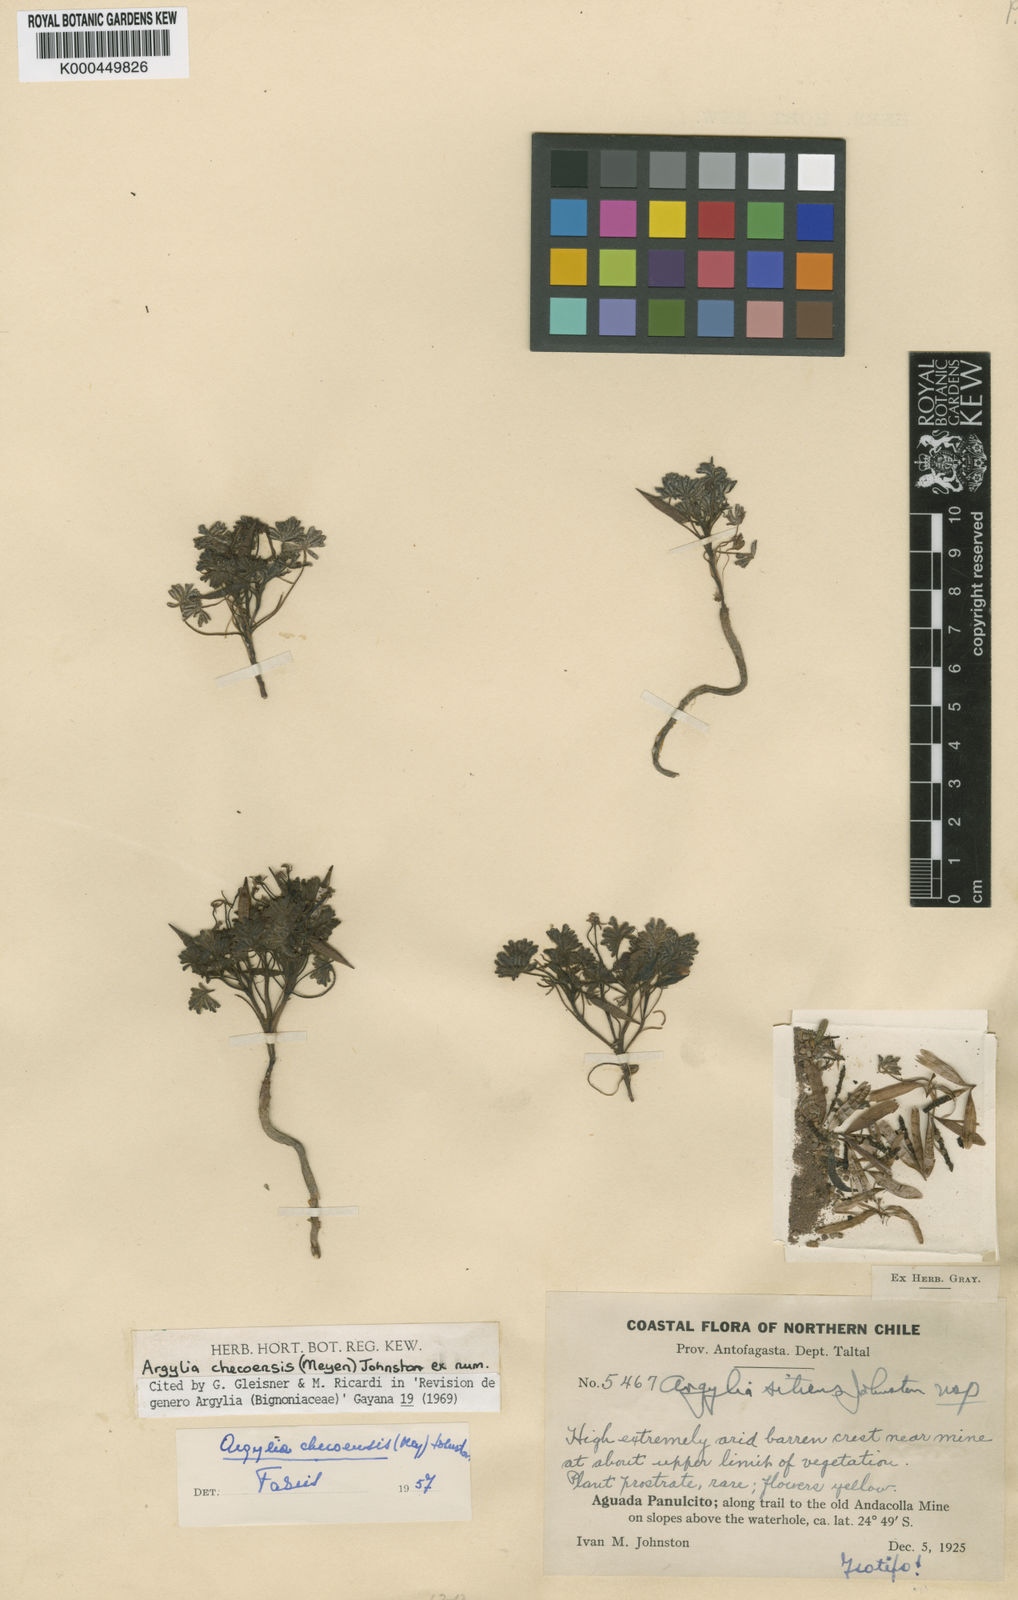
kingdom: Plantae
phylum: Tracheophyta
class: Magnoliopsida
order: Lamiales
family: Bignoniaceae
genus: Argylia
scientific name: Argylia checoensis
